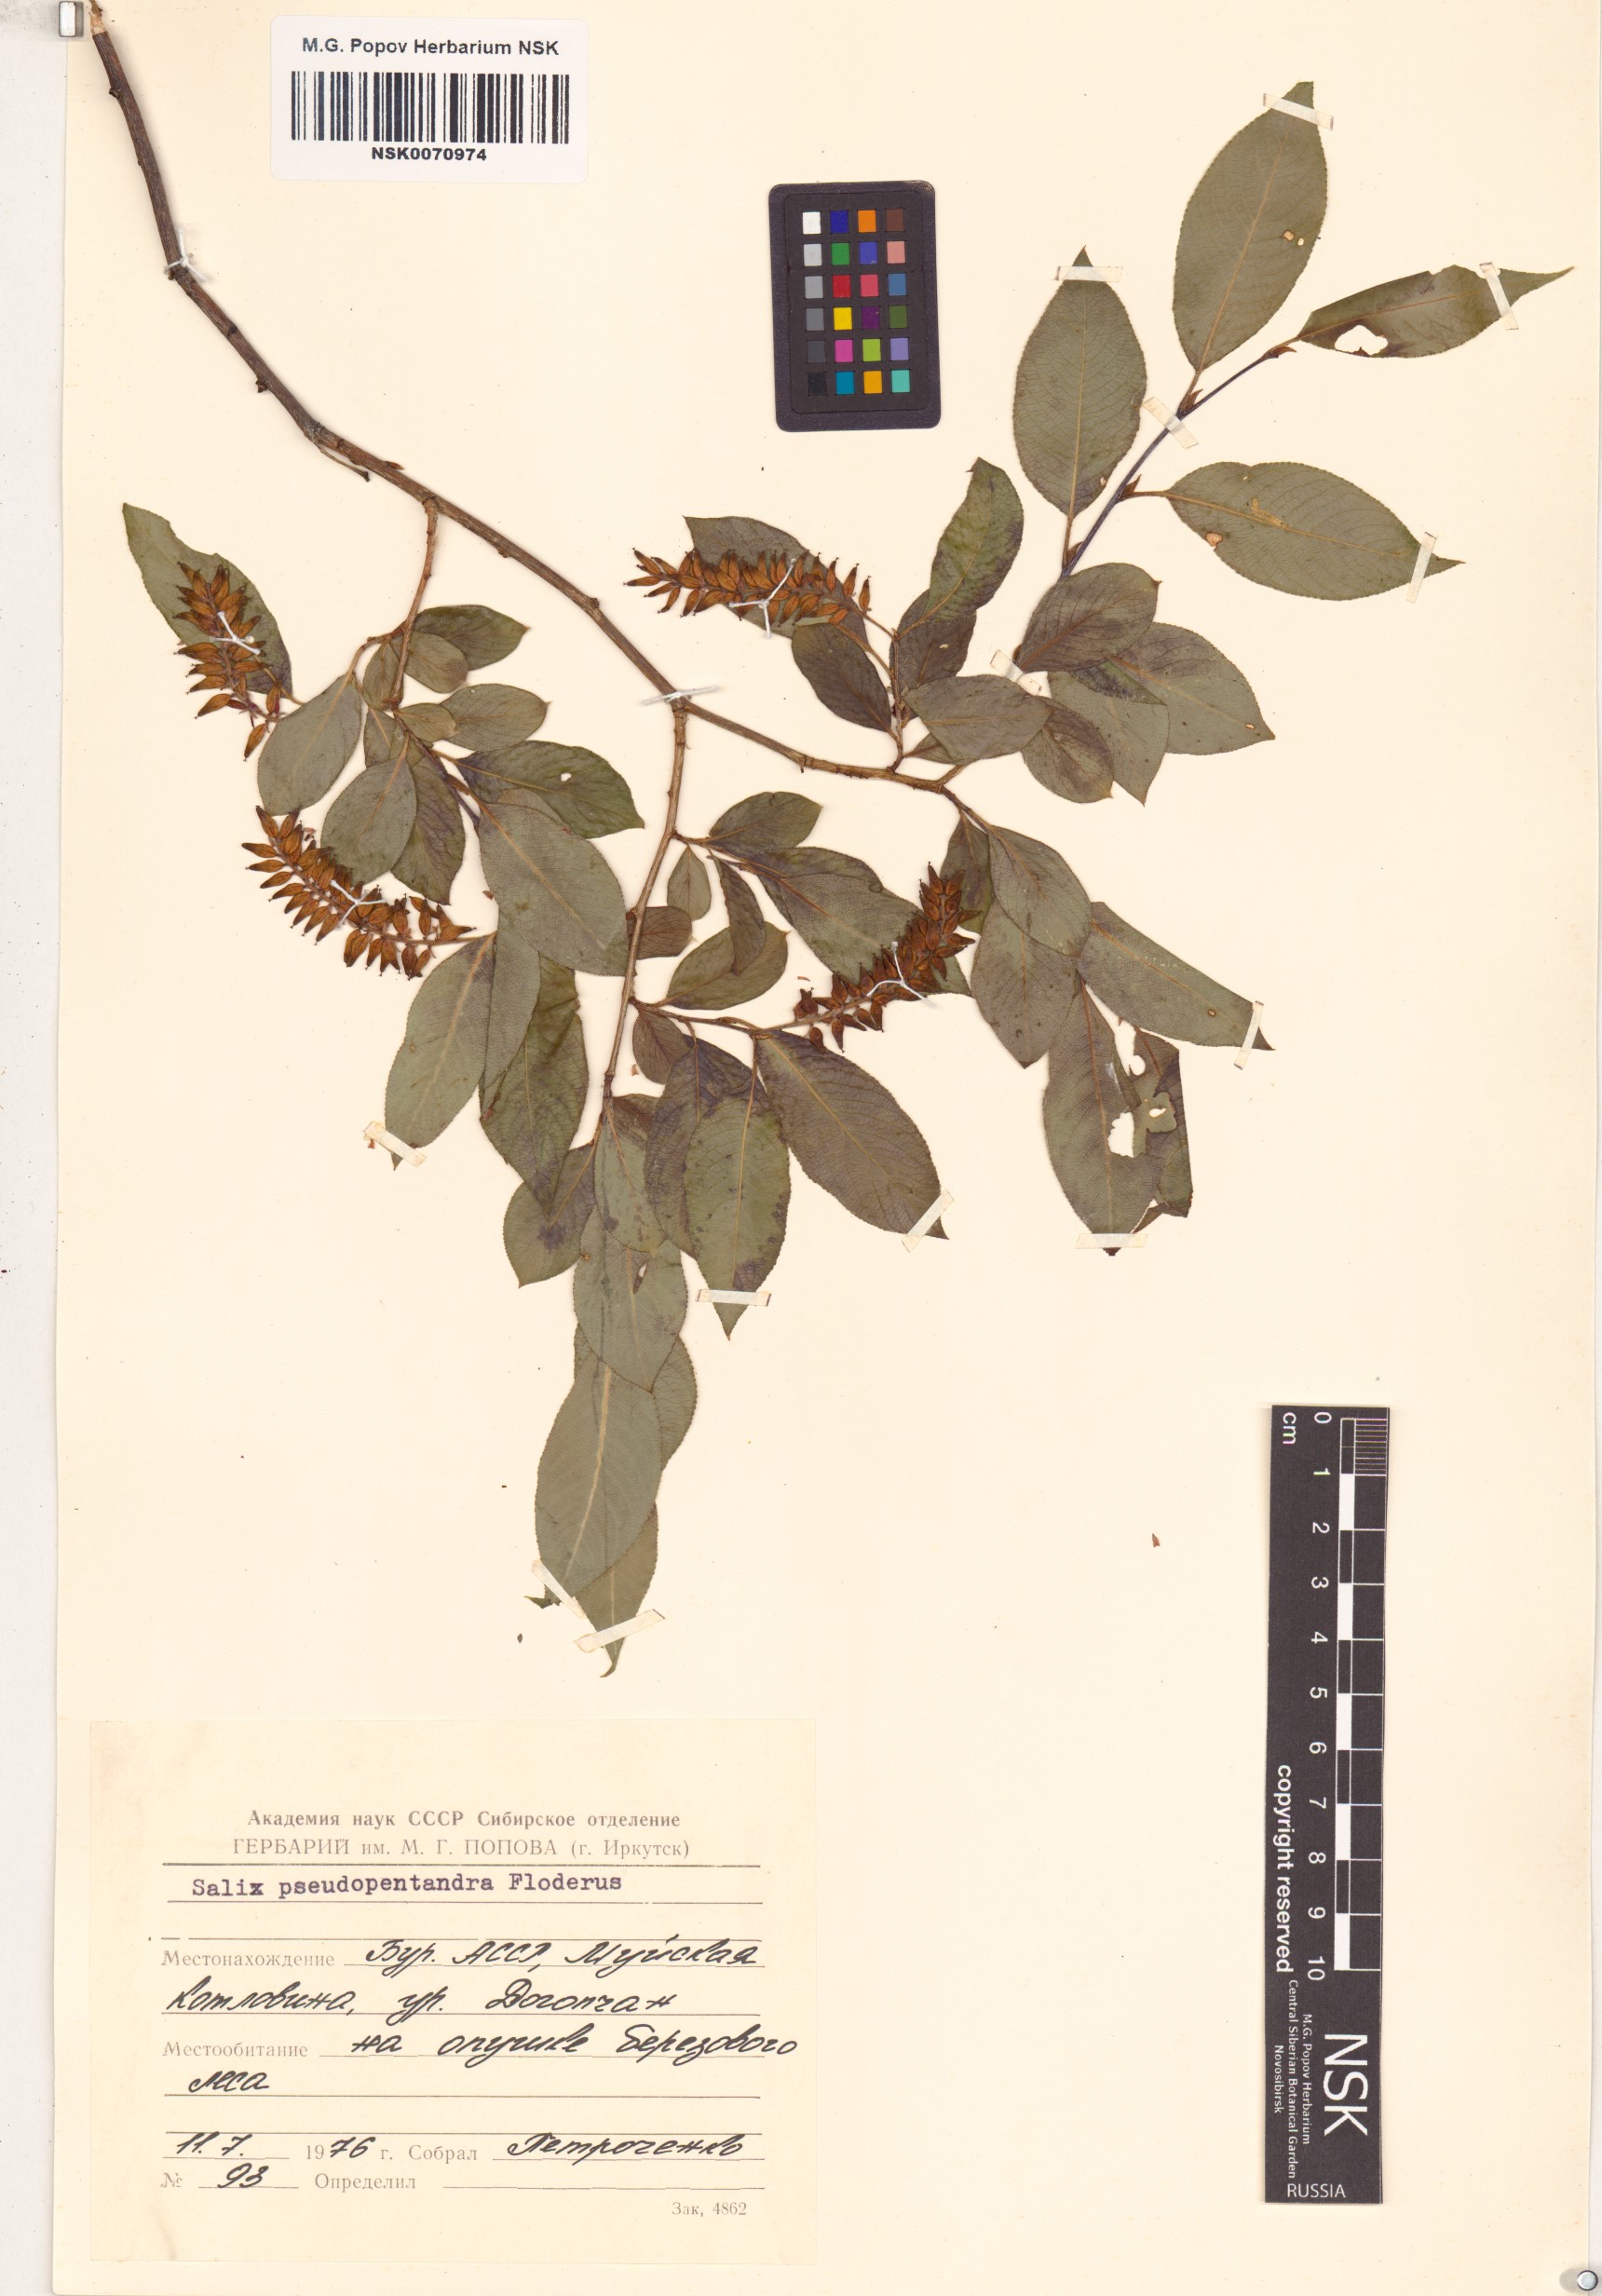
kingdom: Plantae
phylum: Tracheophyta
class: Magnoliopsida
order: Malpighiales
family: Salicaceae
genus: Salix
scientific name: Salix pseudopentandra
